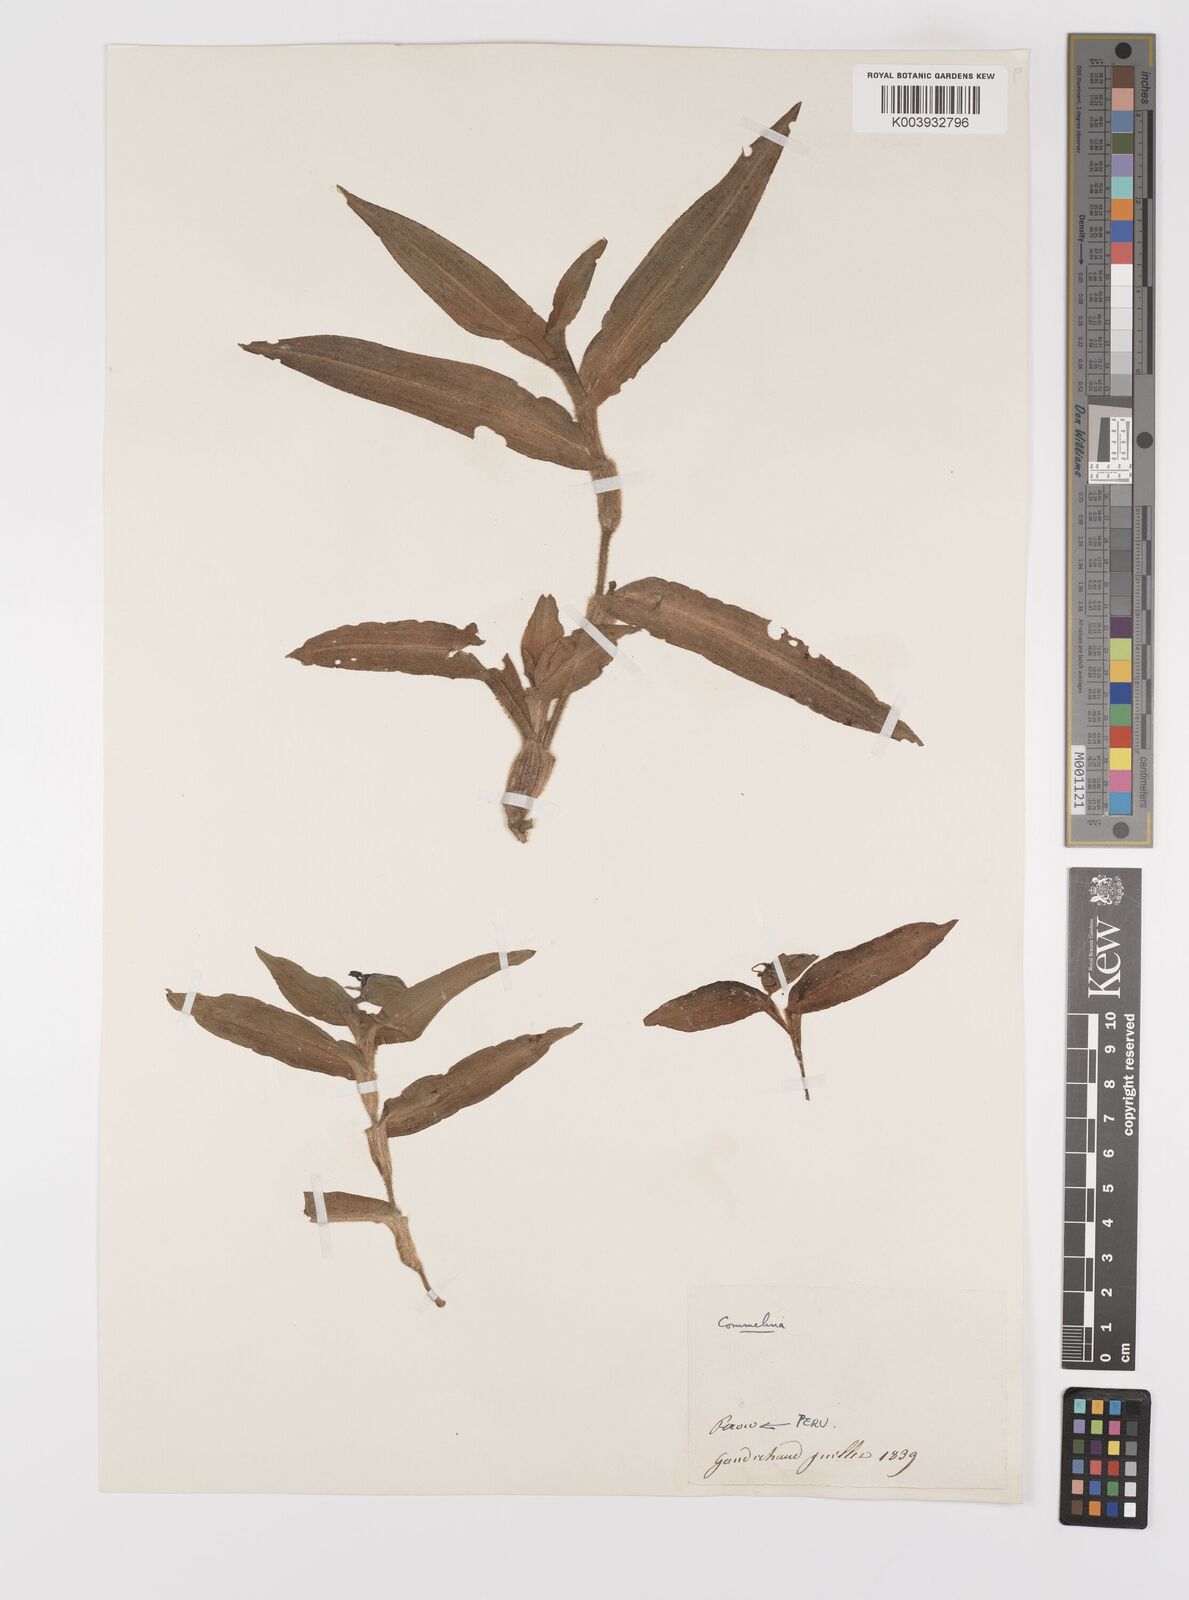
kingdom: Plantae
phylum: Tracheophyta
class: Liliopsida
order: Commelinales
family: Commelinaceae
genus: Commelina
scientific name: Commelina
